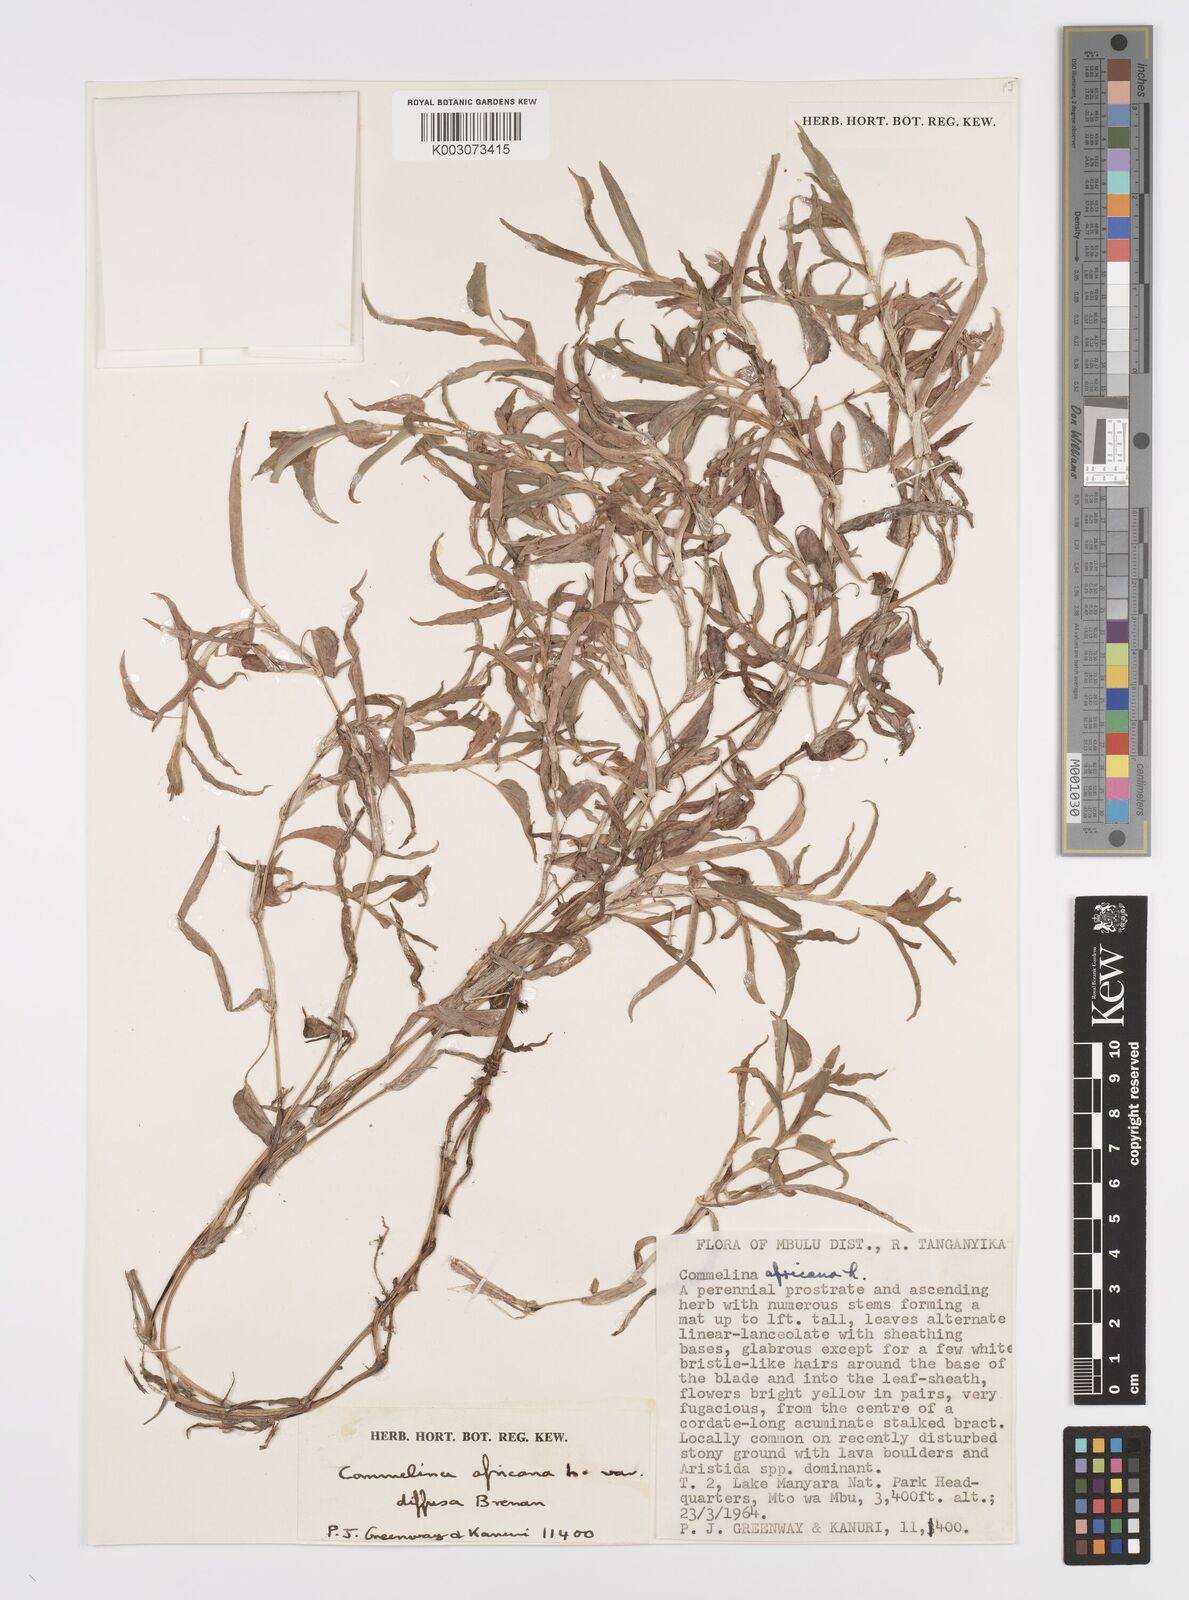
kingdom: Plantae
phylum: Tracheophyta
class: Liliopsida
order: Commelinales
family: Commelinaceae
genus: Commelina
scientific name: Commelina africana
